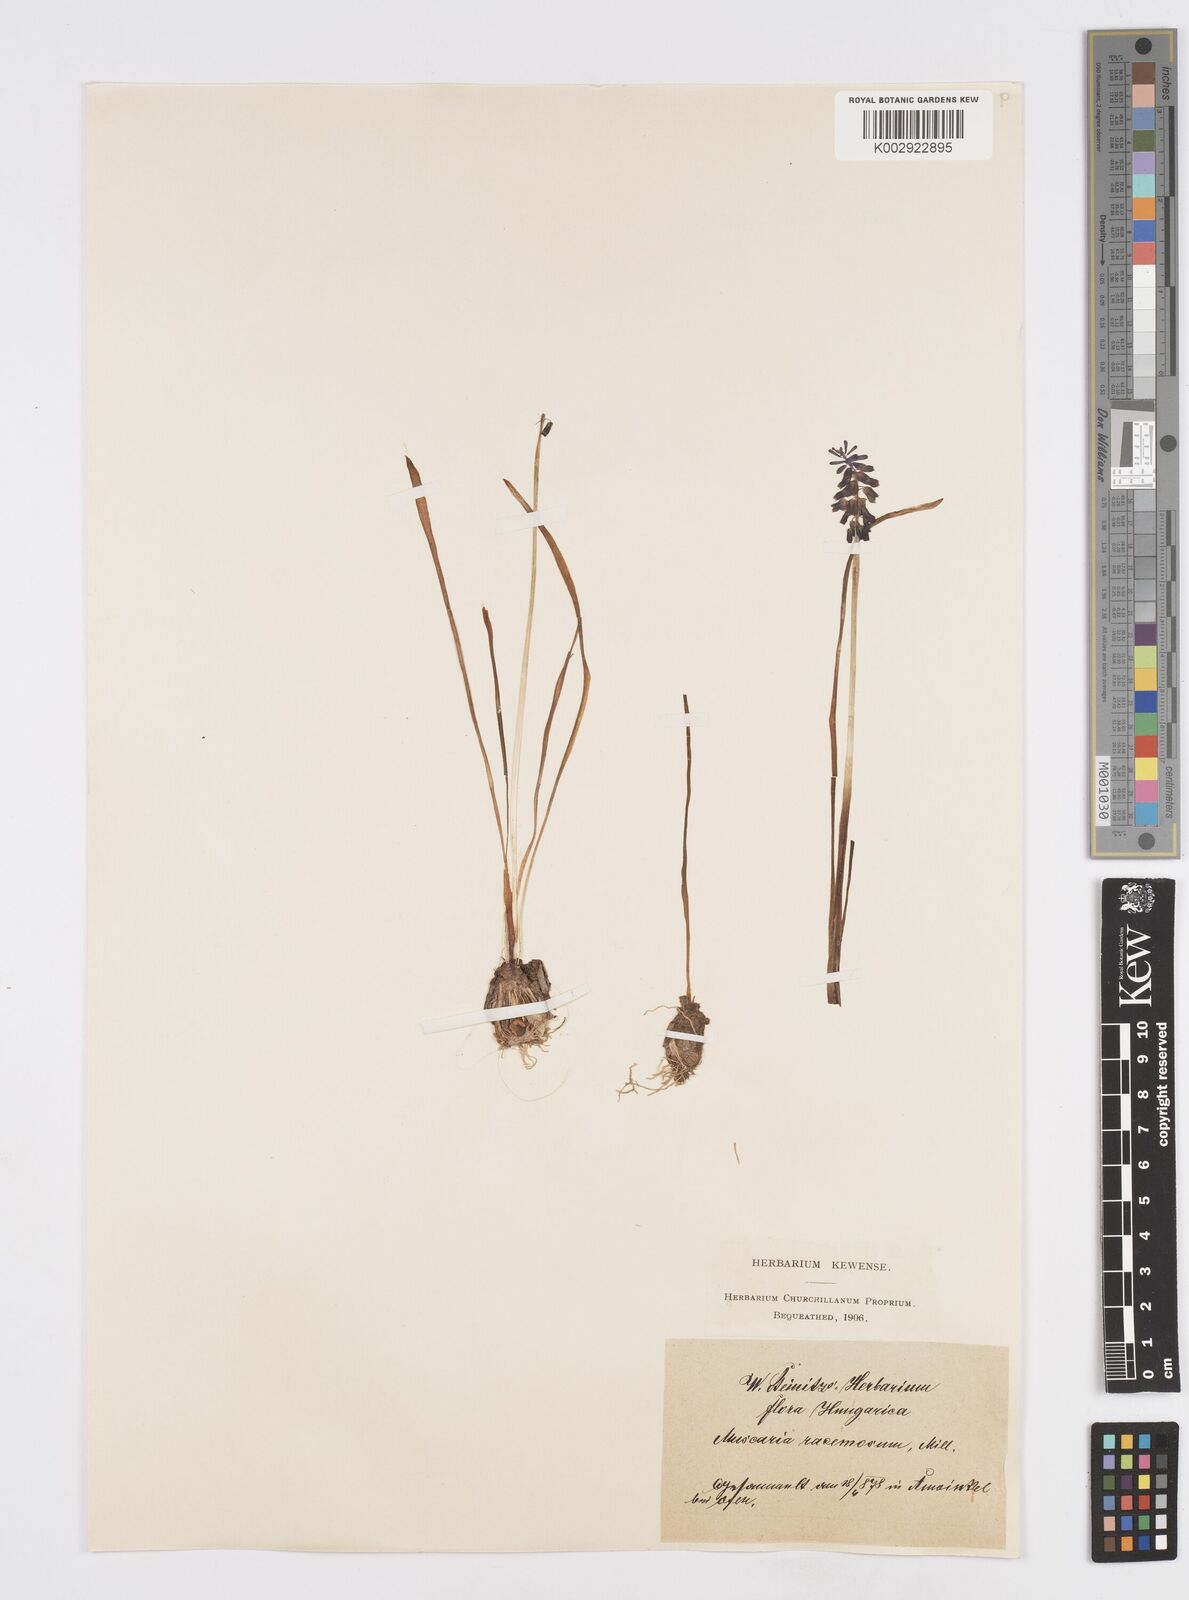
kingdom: Plantae
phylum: Tracheophyta
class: Liliopsida
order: Asparagales
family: Asparagaceae
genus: Muscarimia
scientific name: Muscarimia muscari
